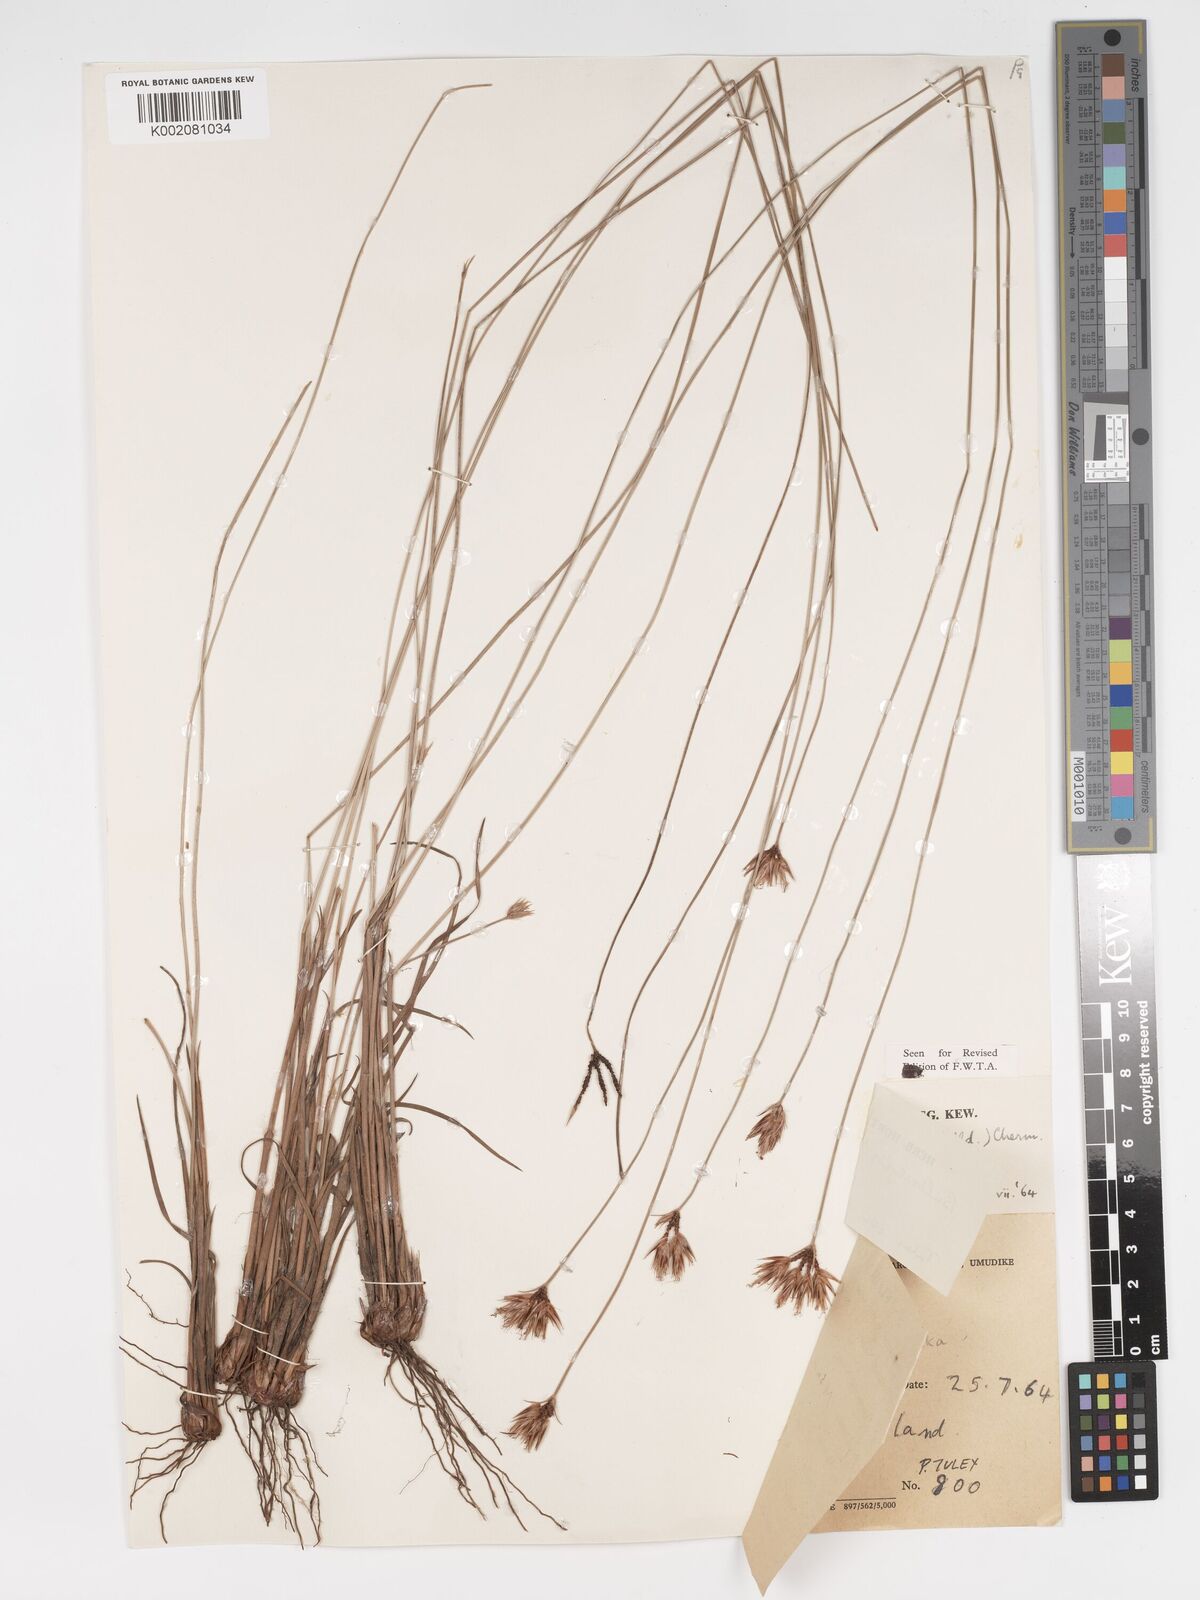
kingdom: Plantae
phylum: Tracheophyta
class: Liliopsida
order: Poales
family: Cyperaceae
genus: Bulbostylis
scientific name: Bulbostylis pilosa
